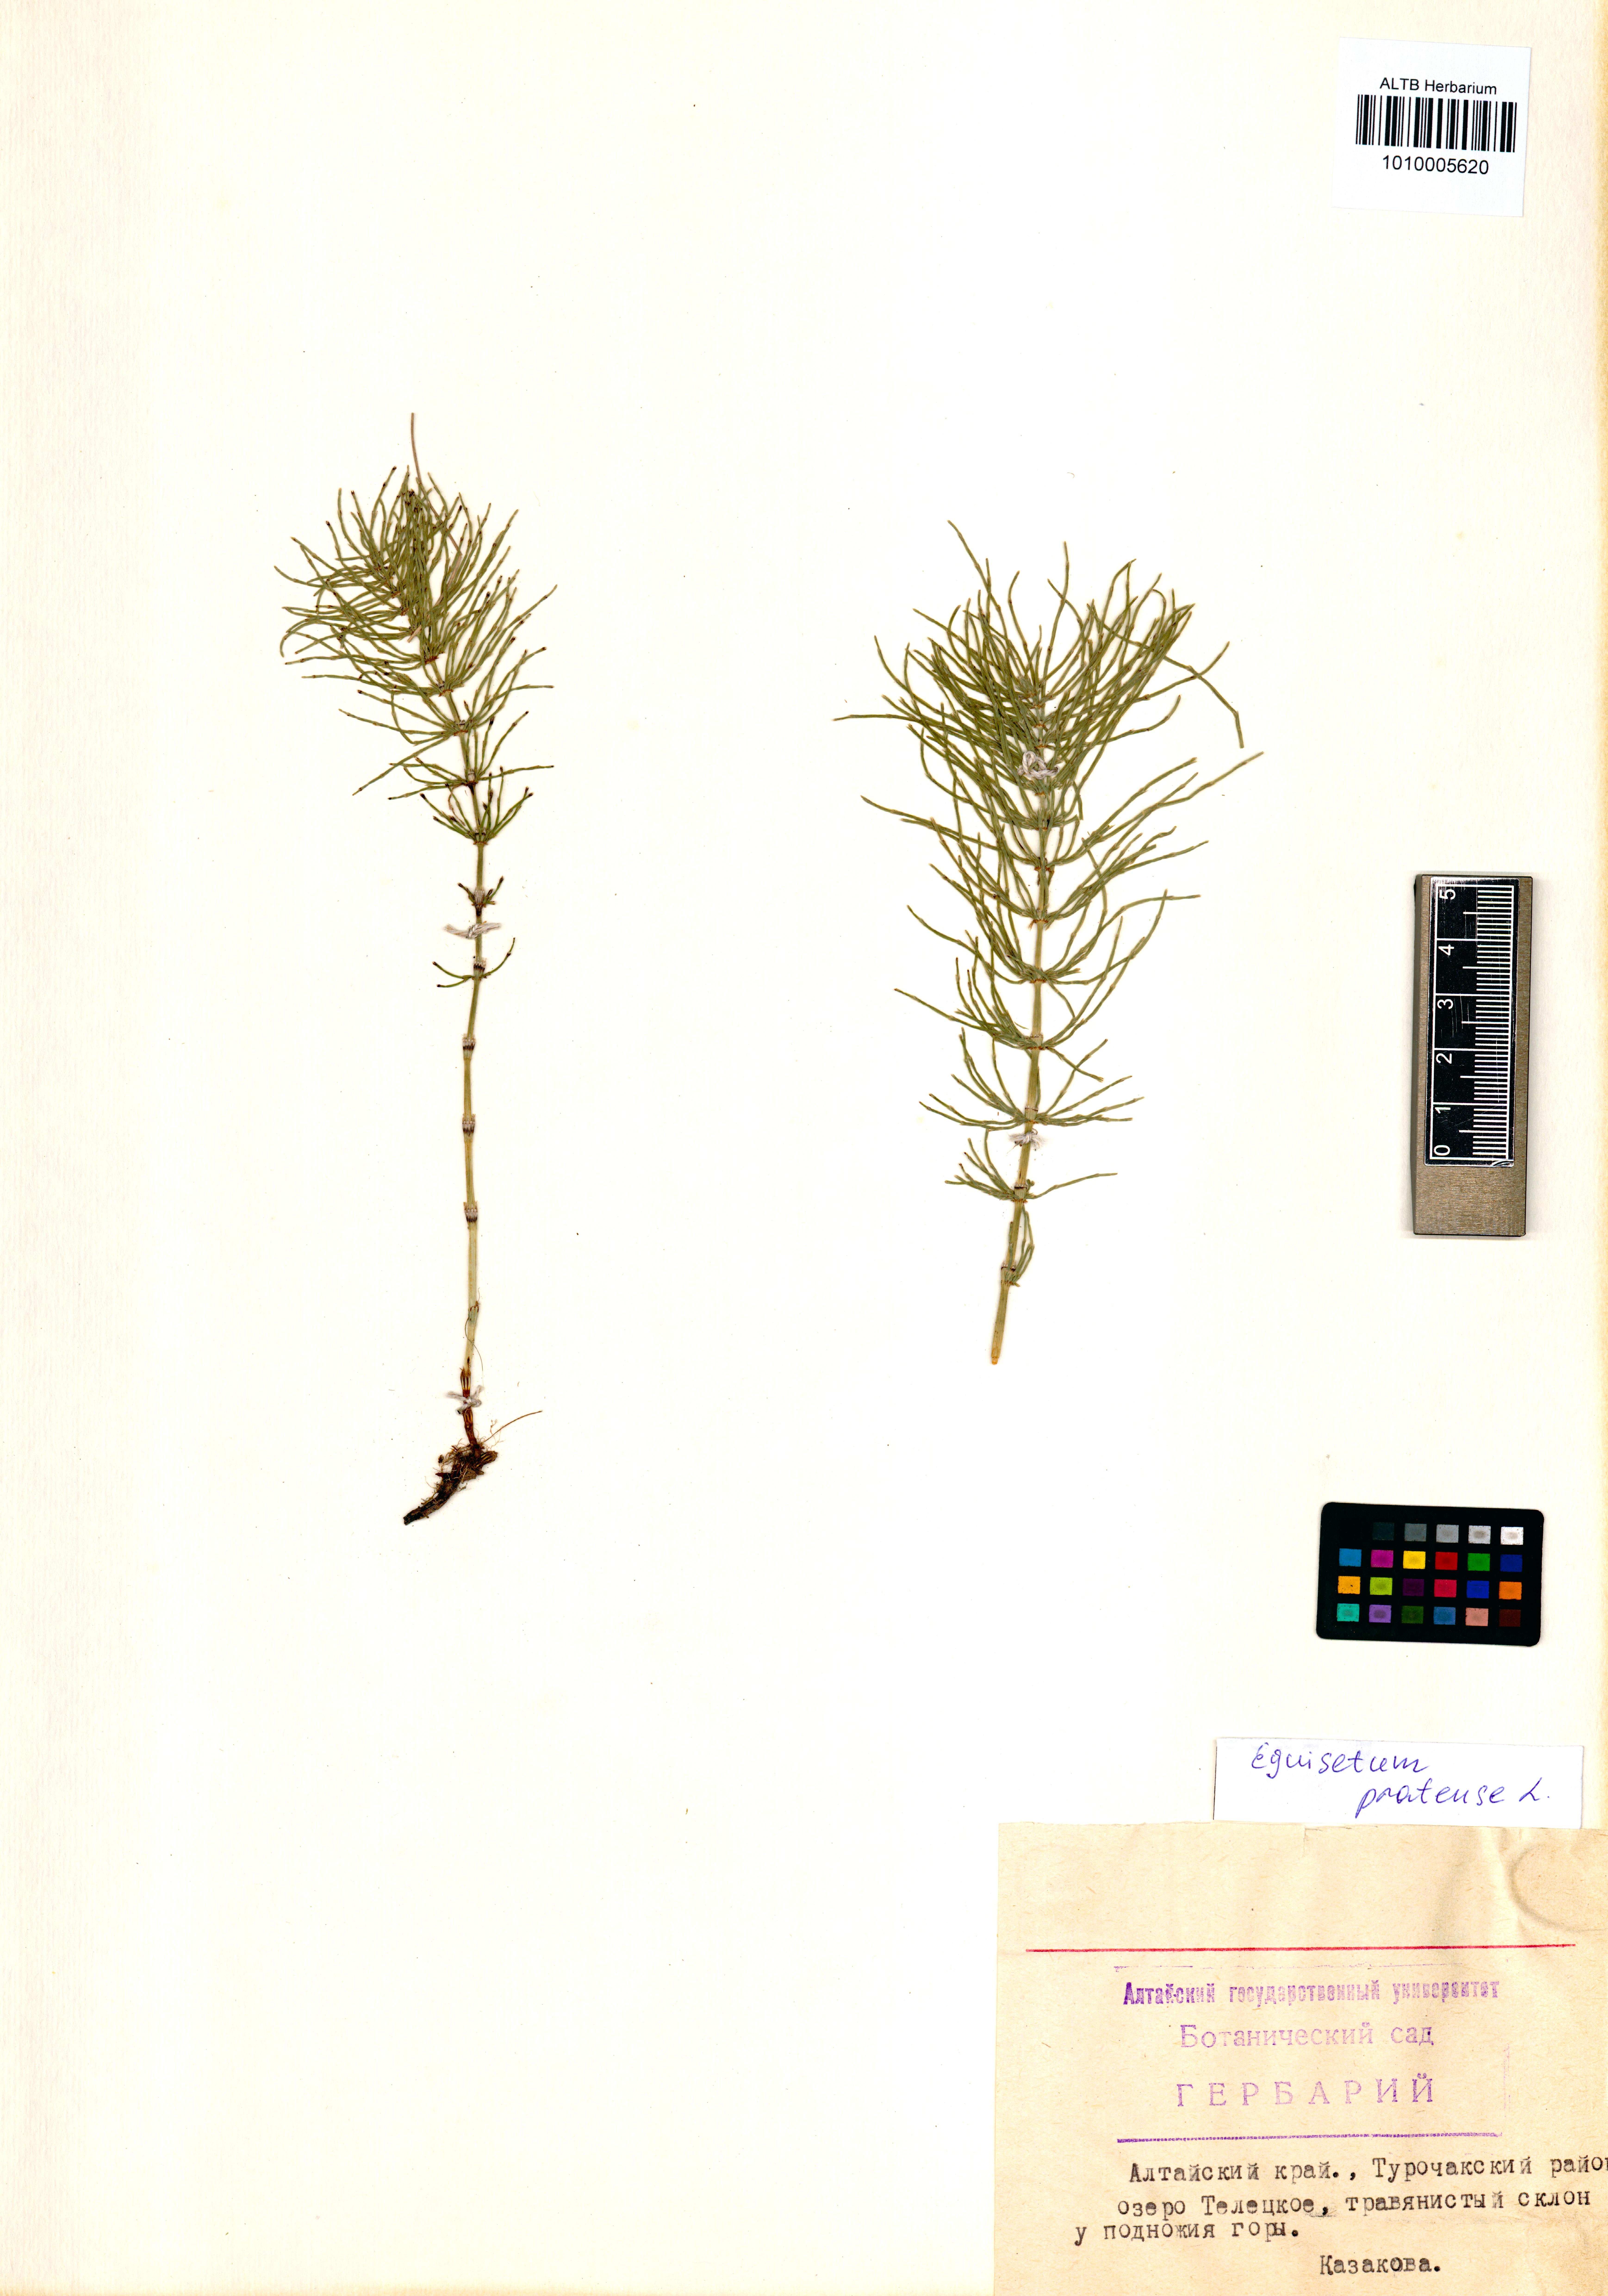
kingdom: Plantae
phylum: Tracheophyta
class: Polypodiopsida
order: Equisetales
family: Equisetaceae
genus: Equisetum
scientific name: Equisetum pratense
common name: Meadow horsetail
